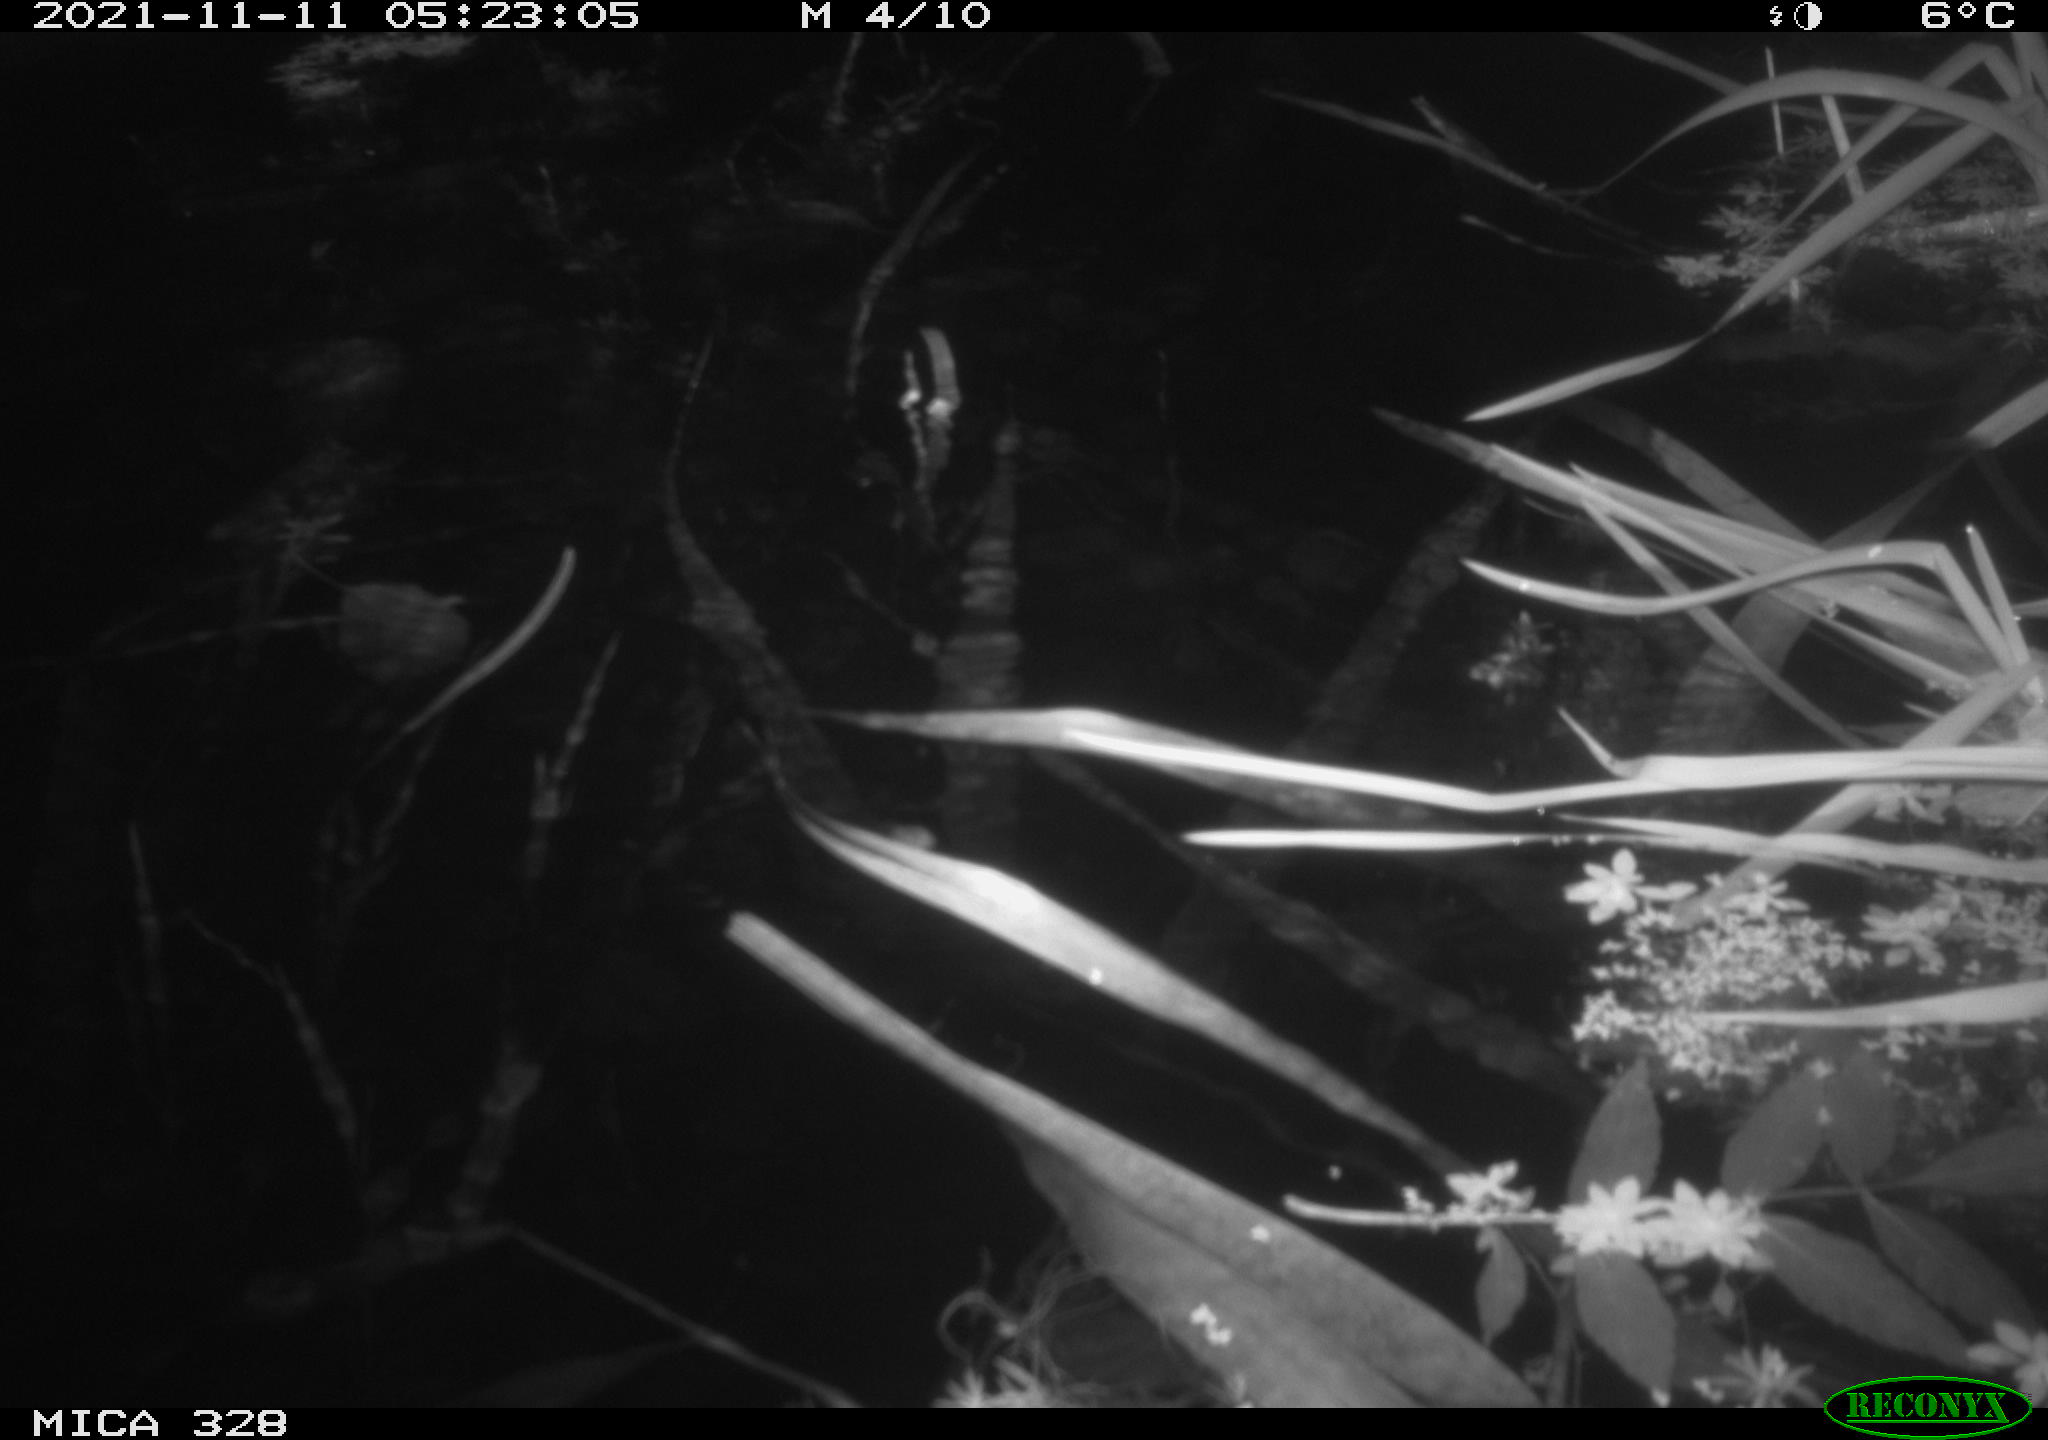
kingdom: Animalia
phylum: Chordata
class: Mammalia
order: Rodentia
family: Cricetidae
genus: Ondatra
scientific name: Ondatra zibethicus
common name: Muskrat
